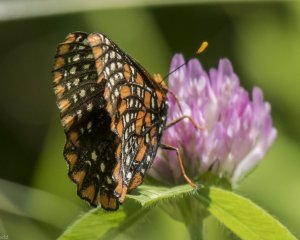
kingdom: Animalia
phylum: Arthropoda
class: Insecta
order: Lepidoptera
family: Nymphalidae
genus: Euphydryas
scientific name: Euphydryas phaeton
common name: Baltimore Checkerspot
